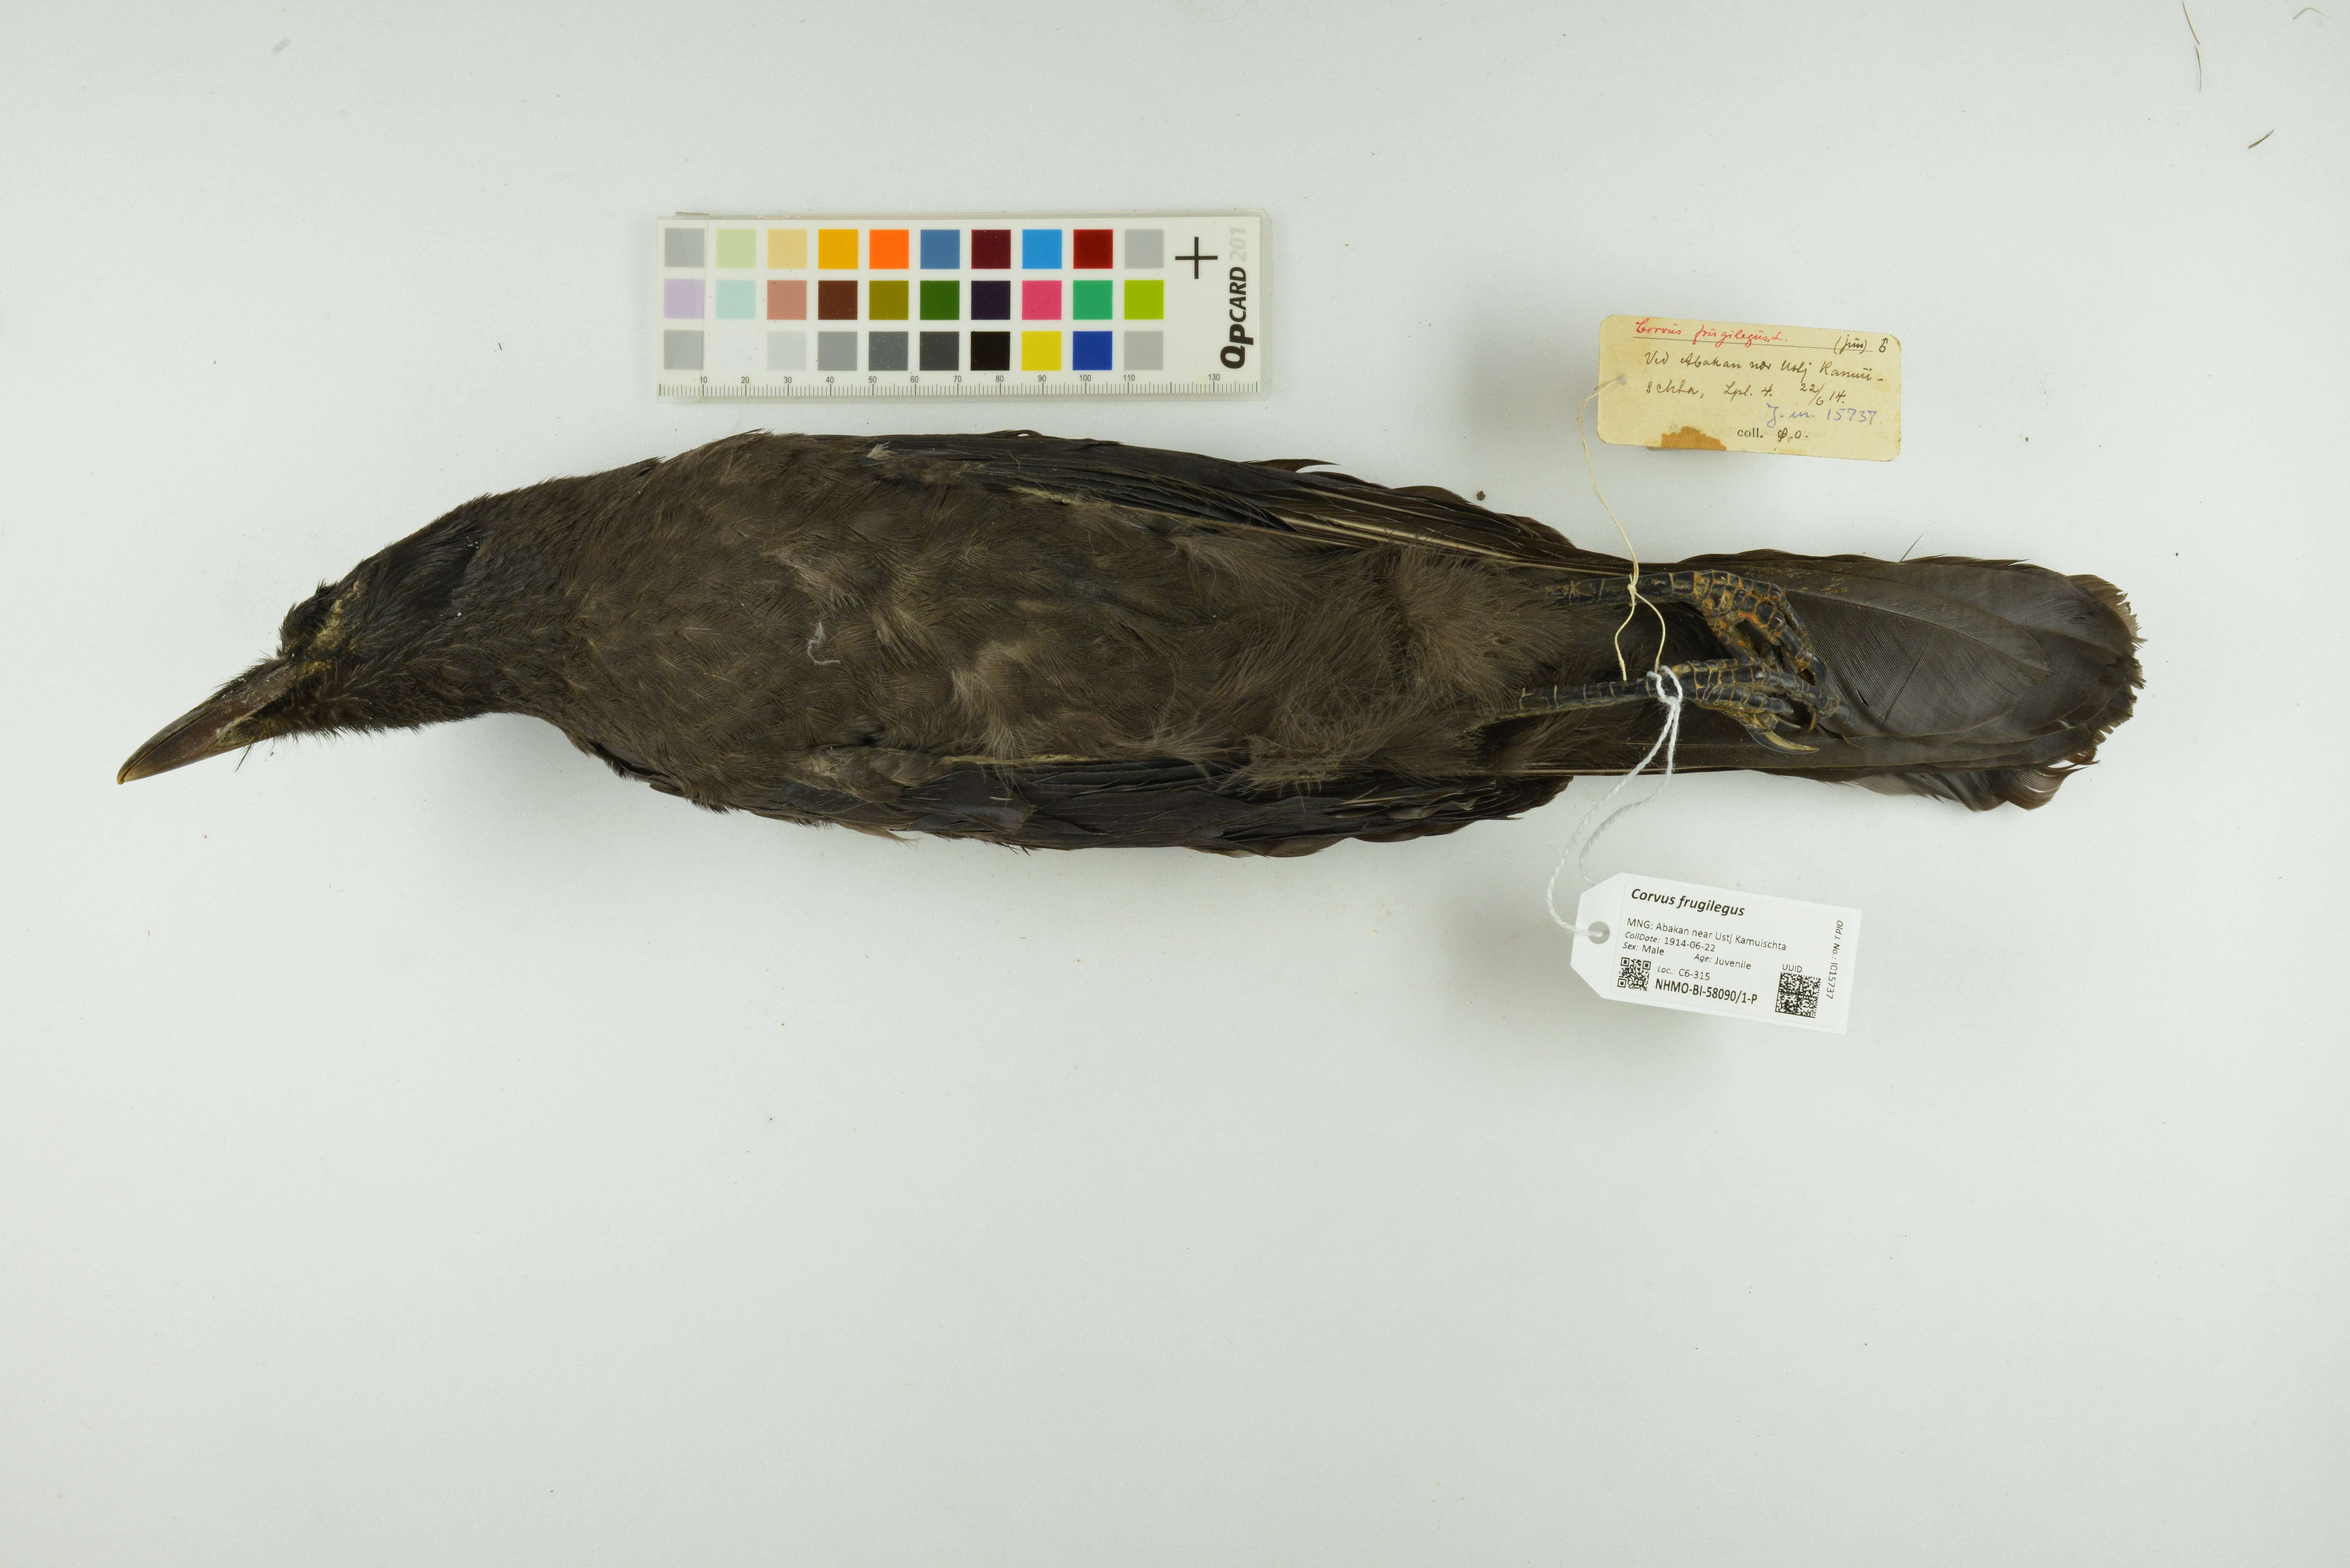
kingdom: Animalia
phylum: Chordata
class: Aves
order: Passeriformes
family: Corvidae
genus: Corvus
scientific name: Corvus frugilegus
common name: Rook
